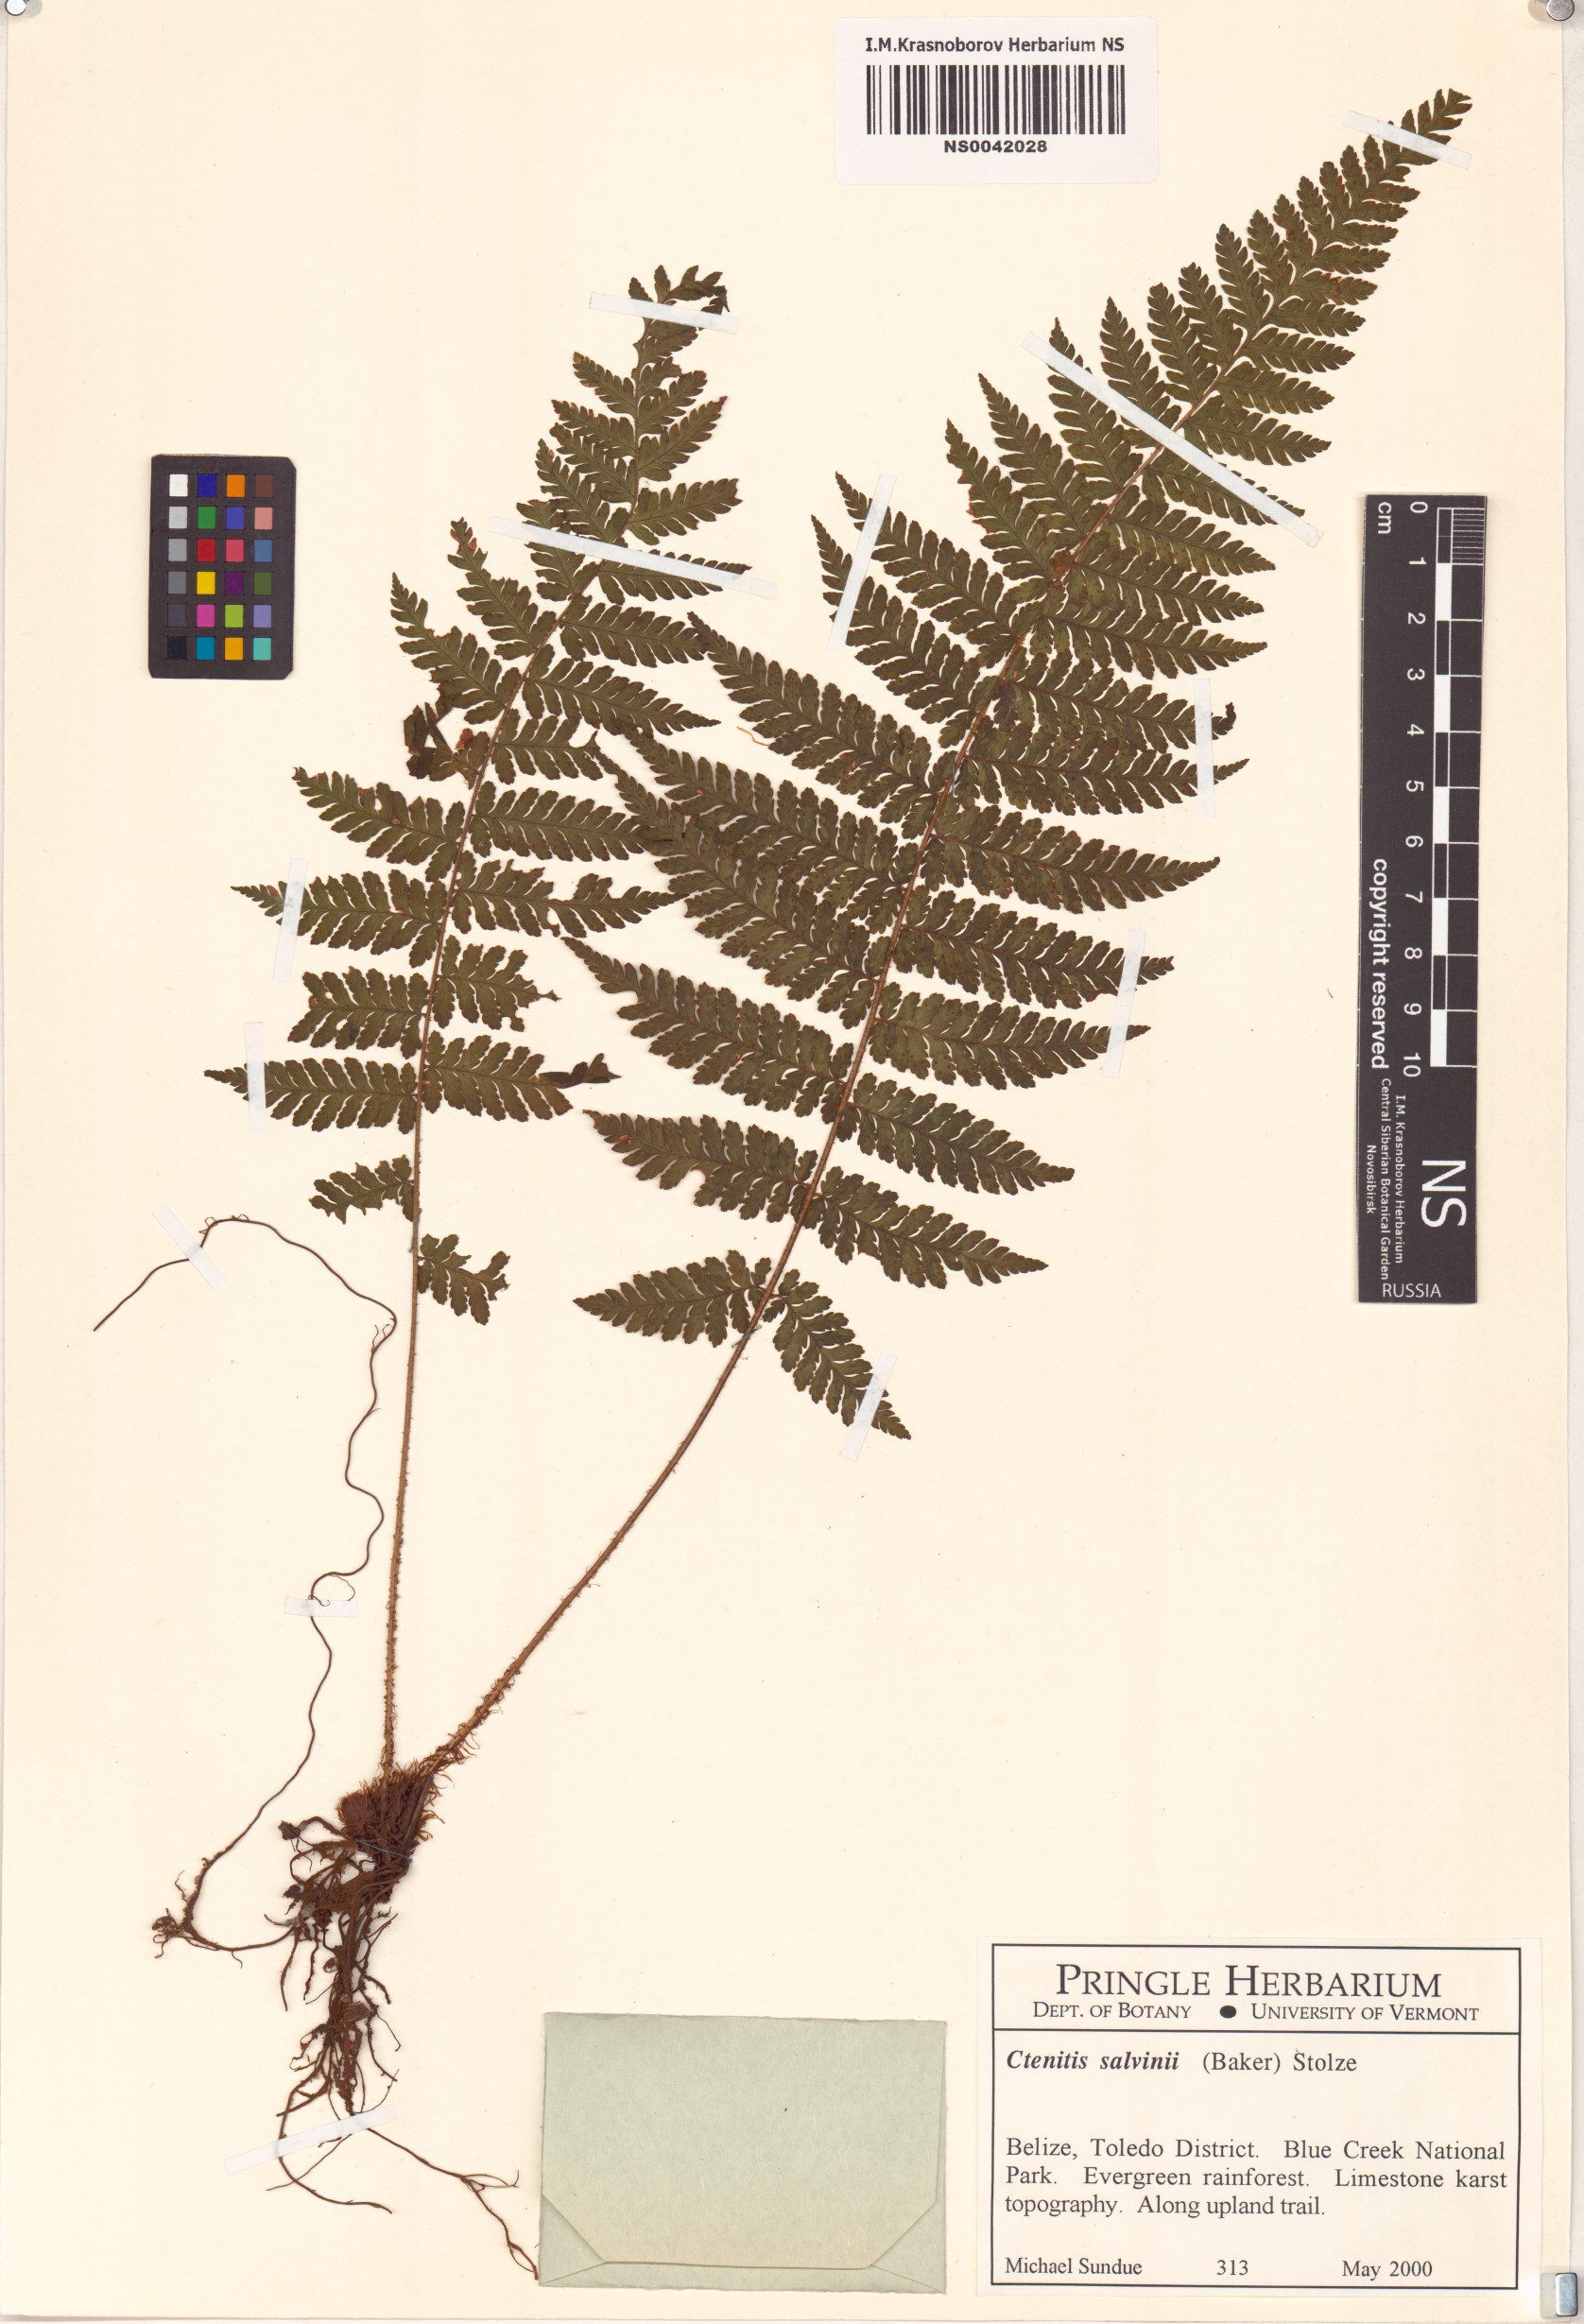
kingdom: Plantae
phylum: Tracheophyta
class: Polypodiopsida
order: Polypodiales
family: Dryopteridaceae
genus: Ctenitis
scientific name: Ctenitis salvinii
